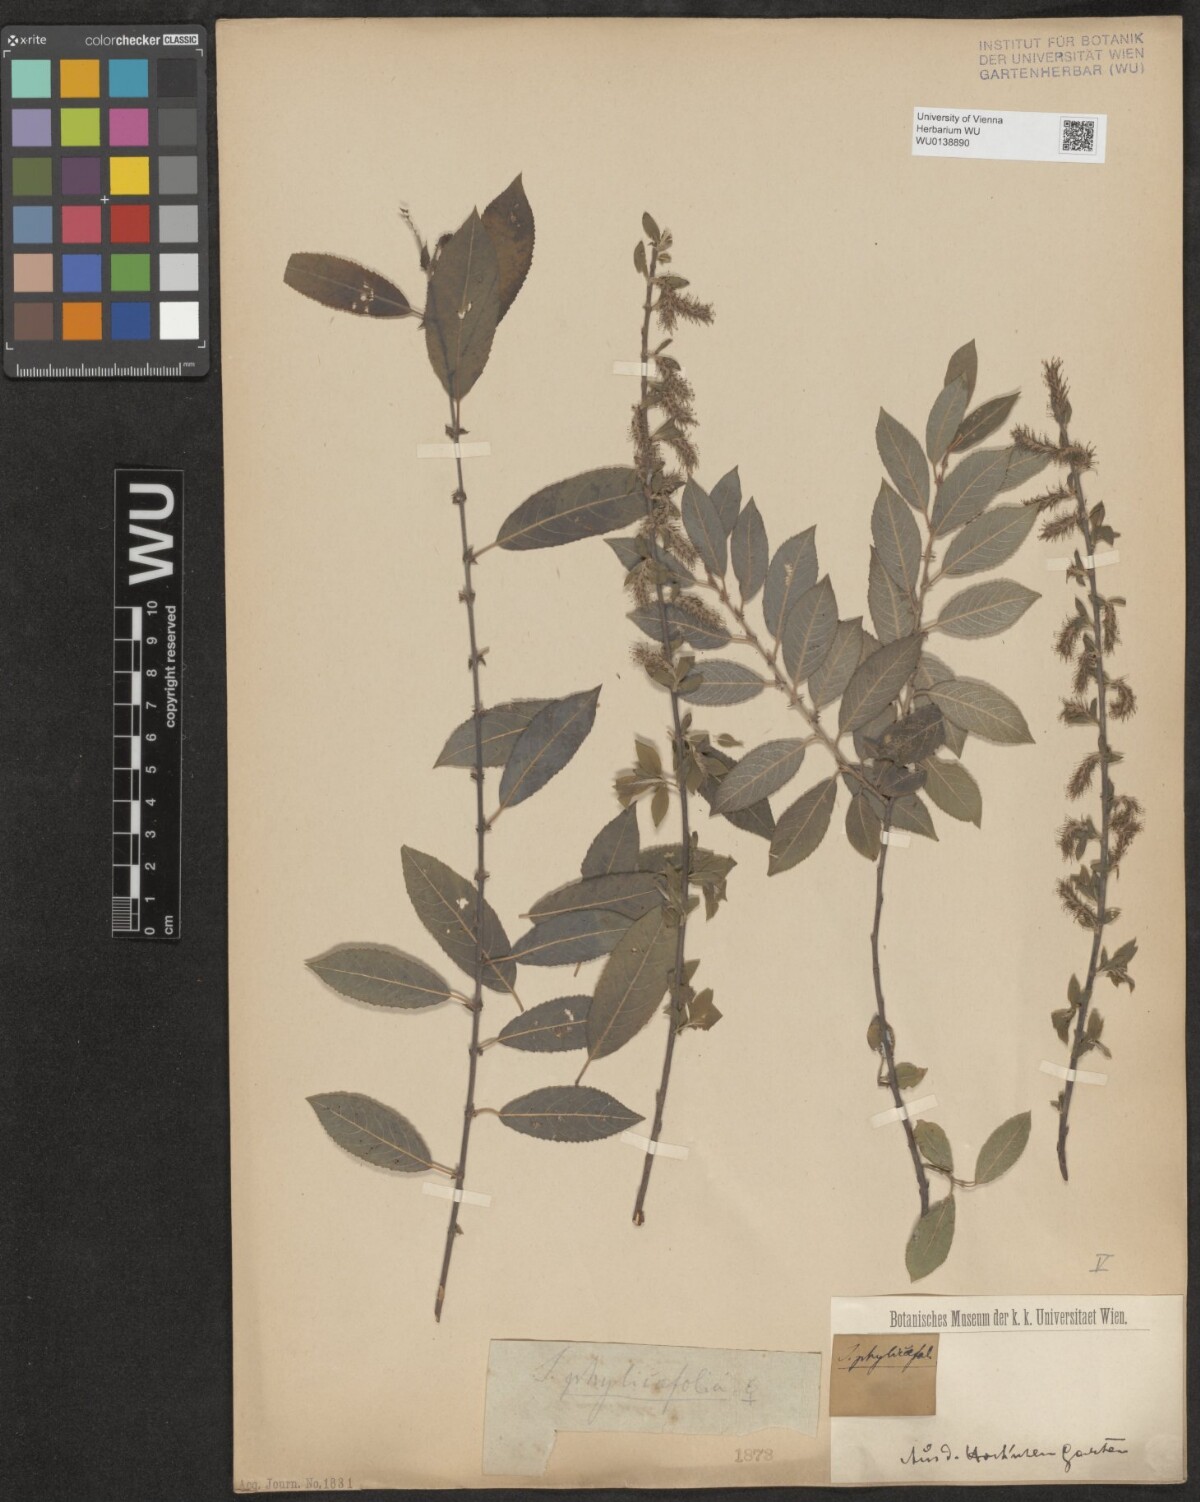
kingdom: Plantae
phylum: Tracheophyta
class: Magnoliopsida
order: Malpighiales
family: Salicaceae
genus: Salix
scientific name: Salix phylicifolia
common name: Tea-leaved willow
